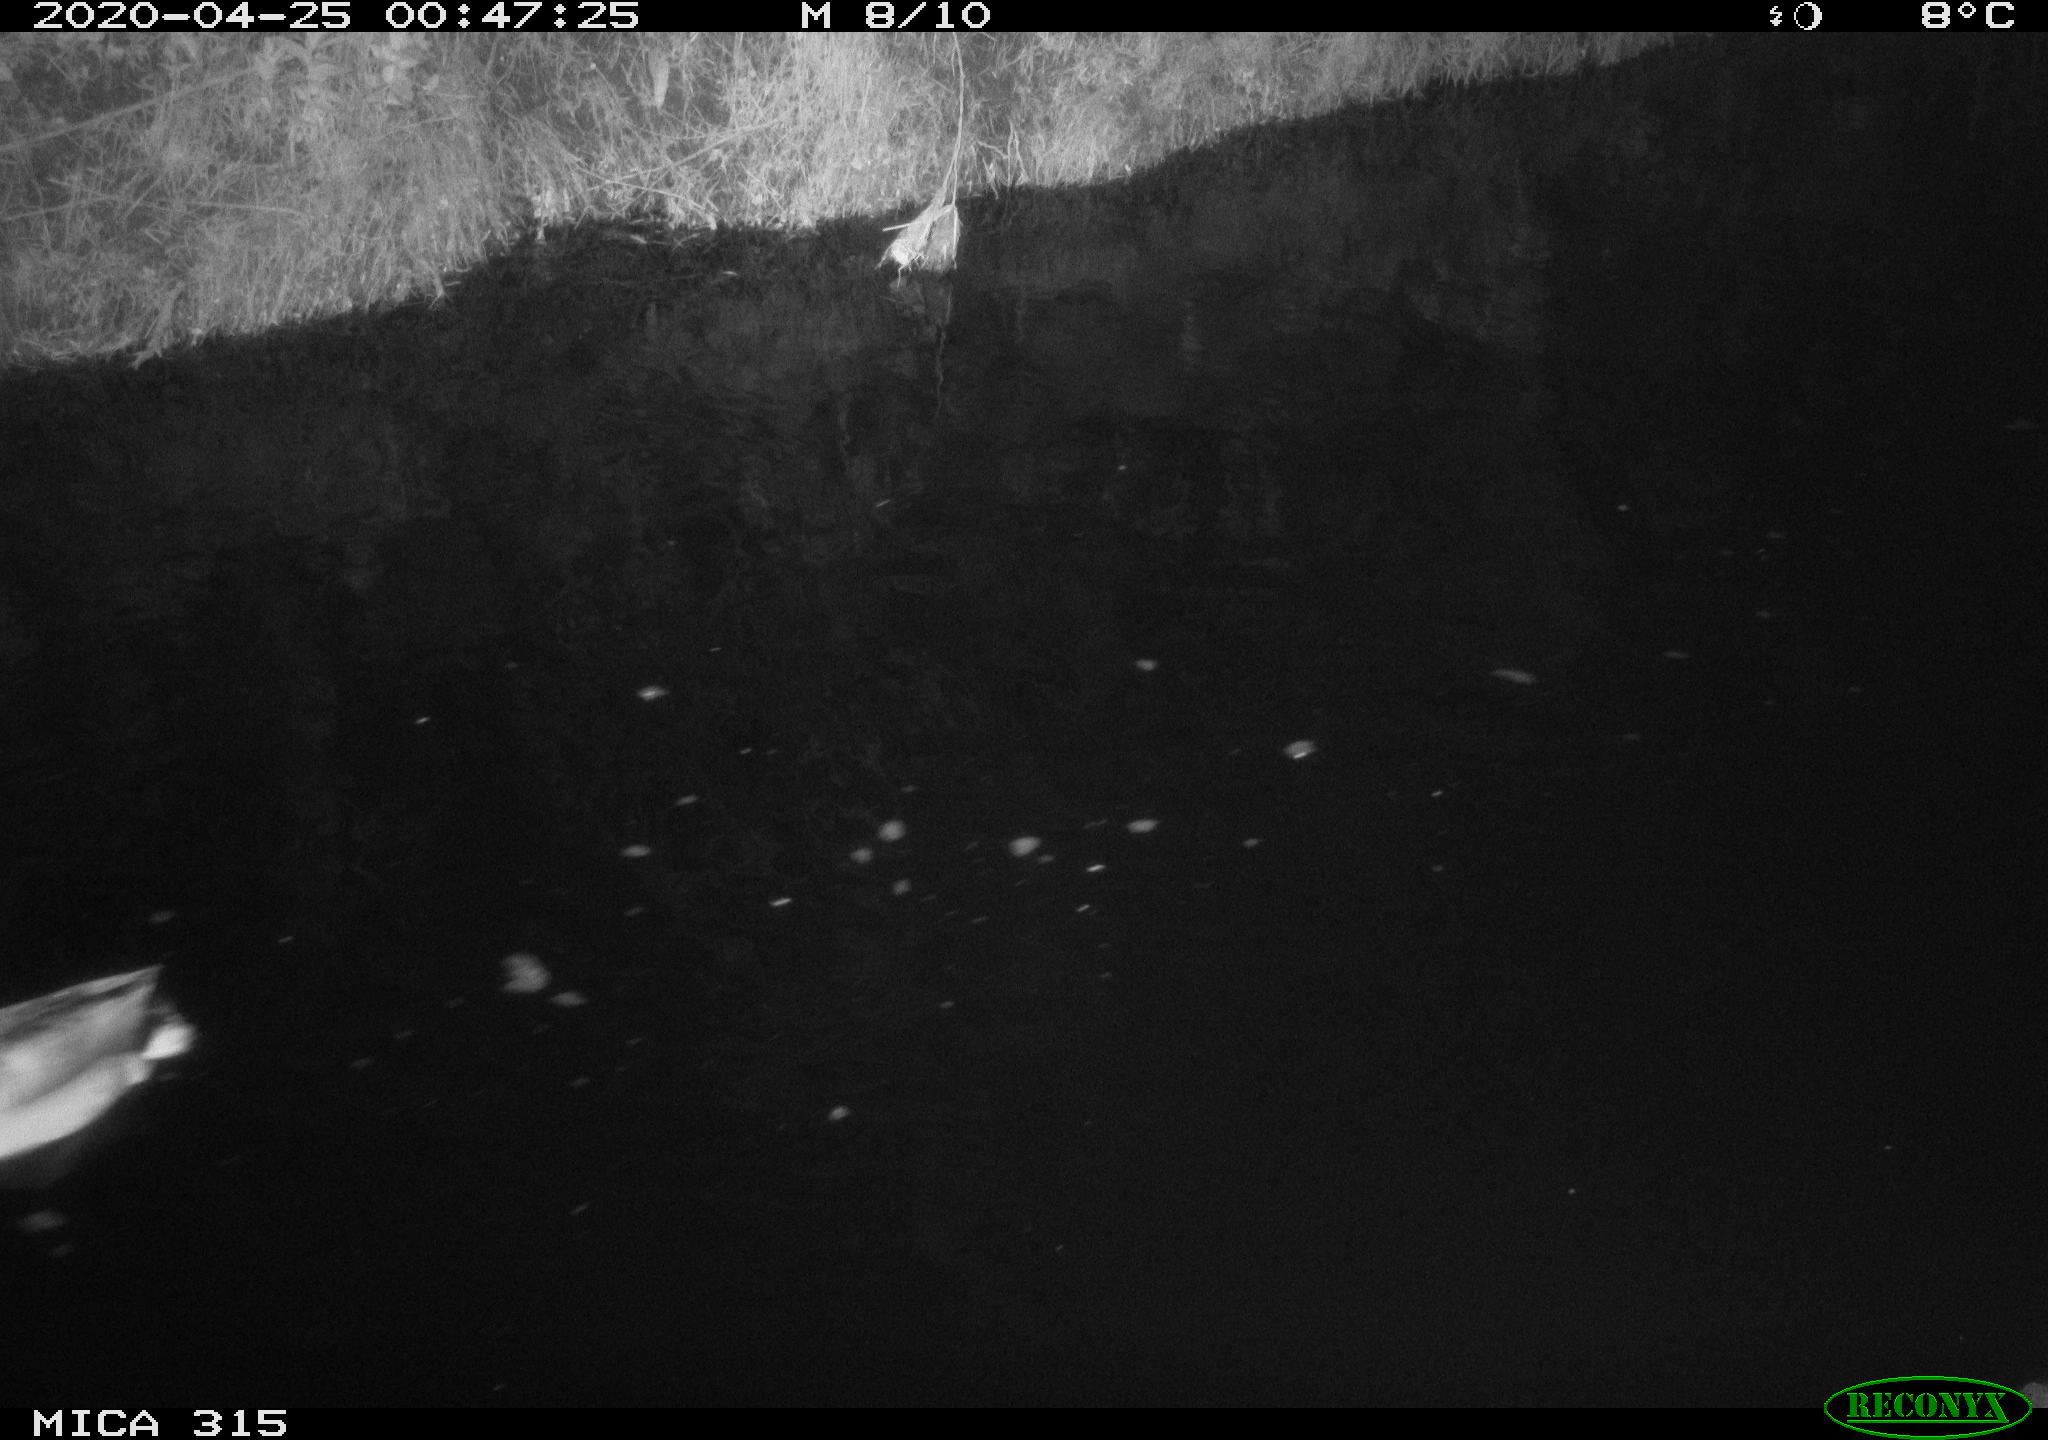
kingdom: Animalia
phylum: Chordata
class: Aves
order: Anseriformes
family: Anatidae
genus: Anas
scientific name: Anas platyrhynchos
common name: Mallard
